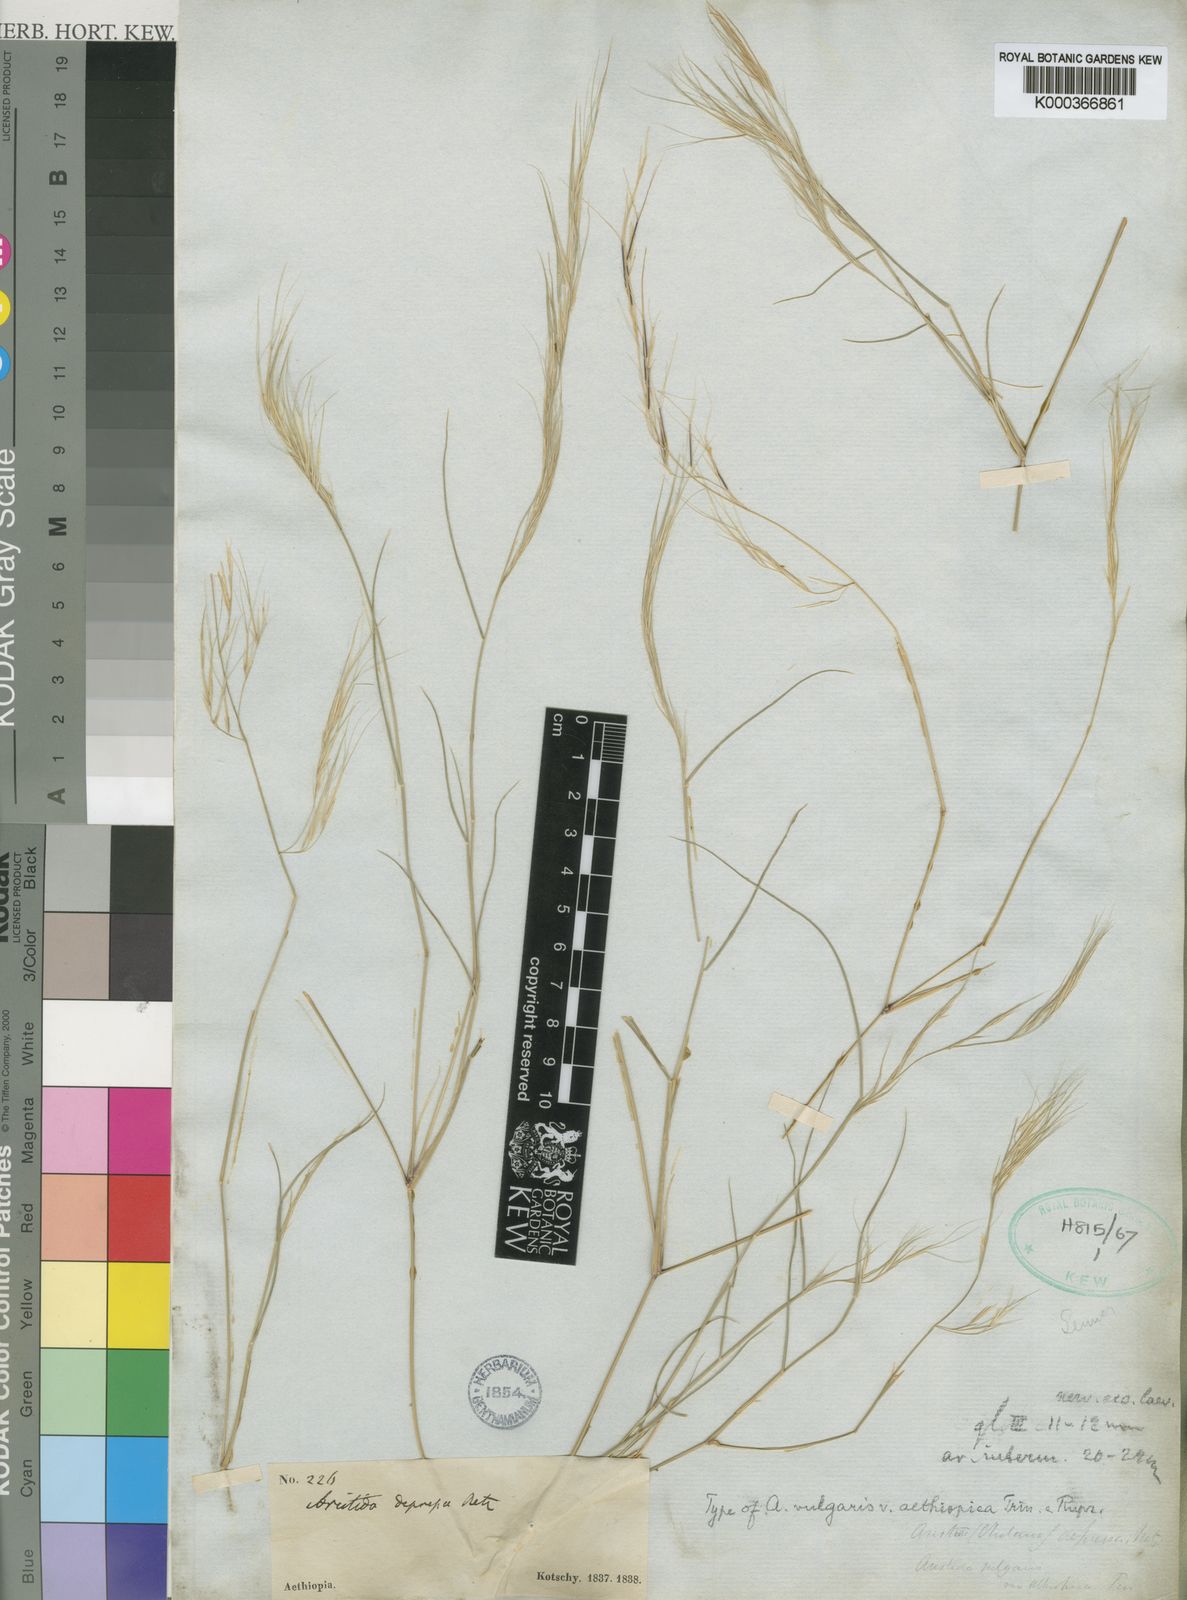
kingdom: Plantae
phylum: Tracheophyta
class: Liliopsida
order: Poales
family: Poaceae
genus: Aristida
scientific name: Aristida adscensionis
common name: Sixweeks threeawn
